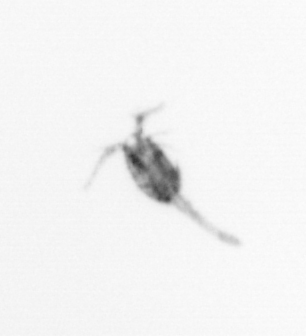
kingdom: Animalia
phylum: Arthropoda
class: Copepoda
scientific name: Copepoda
